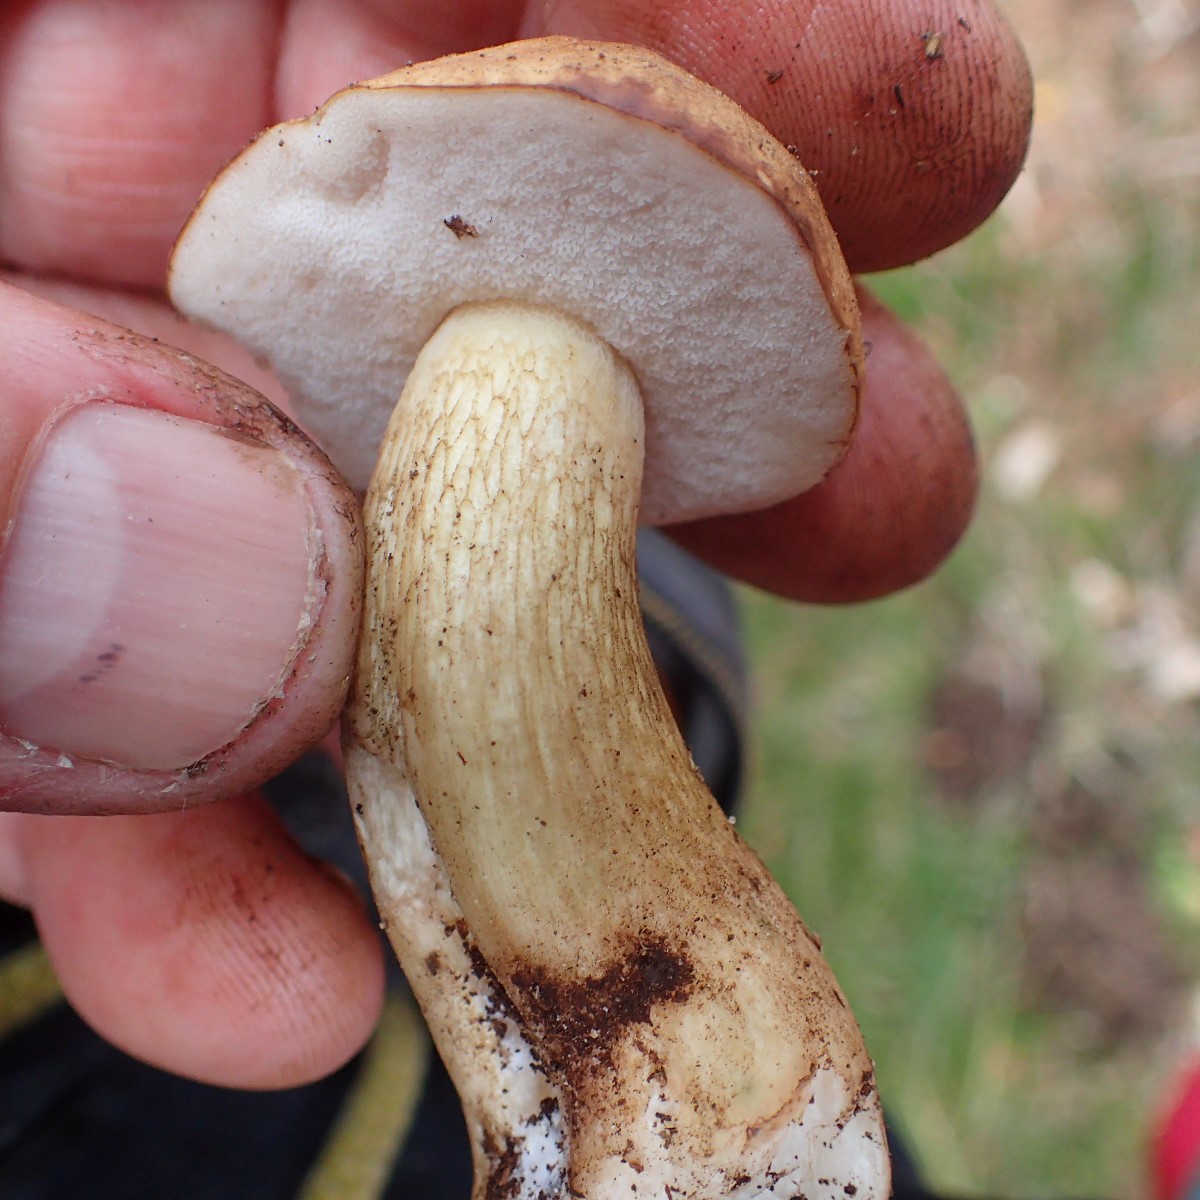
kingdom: Fungi
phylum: Basidiomycota
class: Agaricomycetes
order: Boletales
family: Boletaceae
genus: Tylopilus
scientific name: Tylopilus felleus
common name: galderørhat
